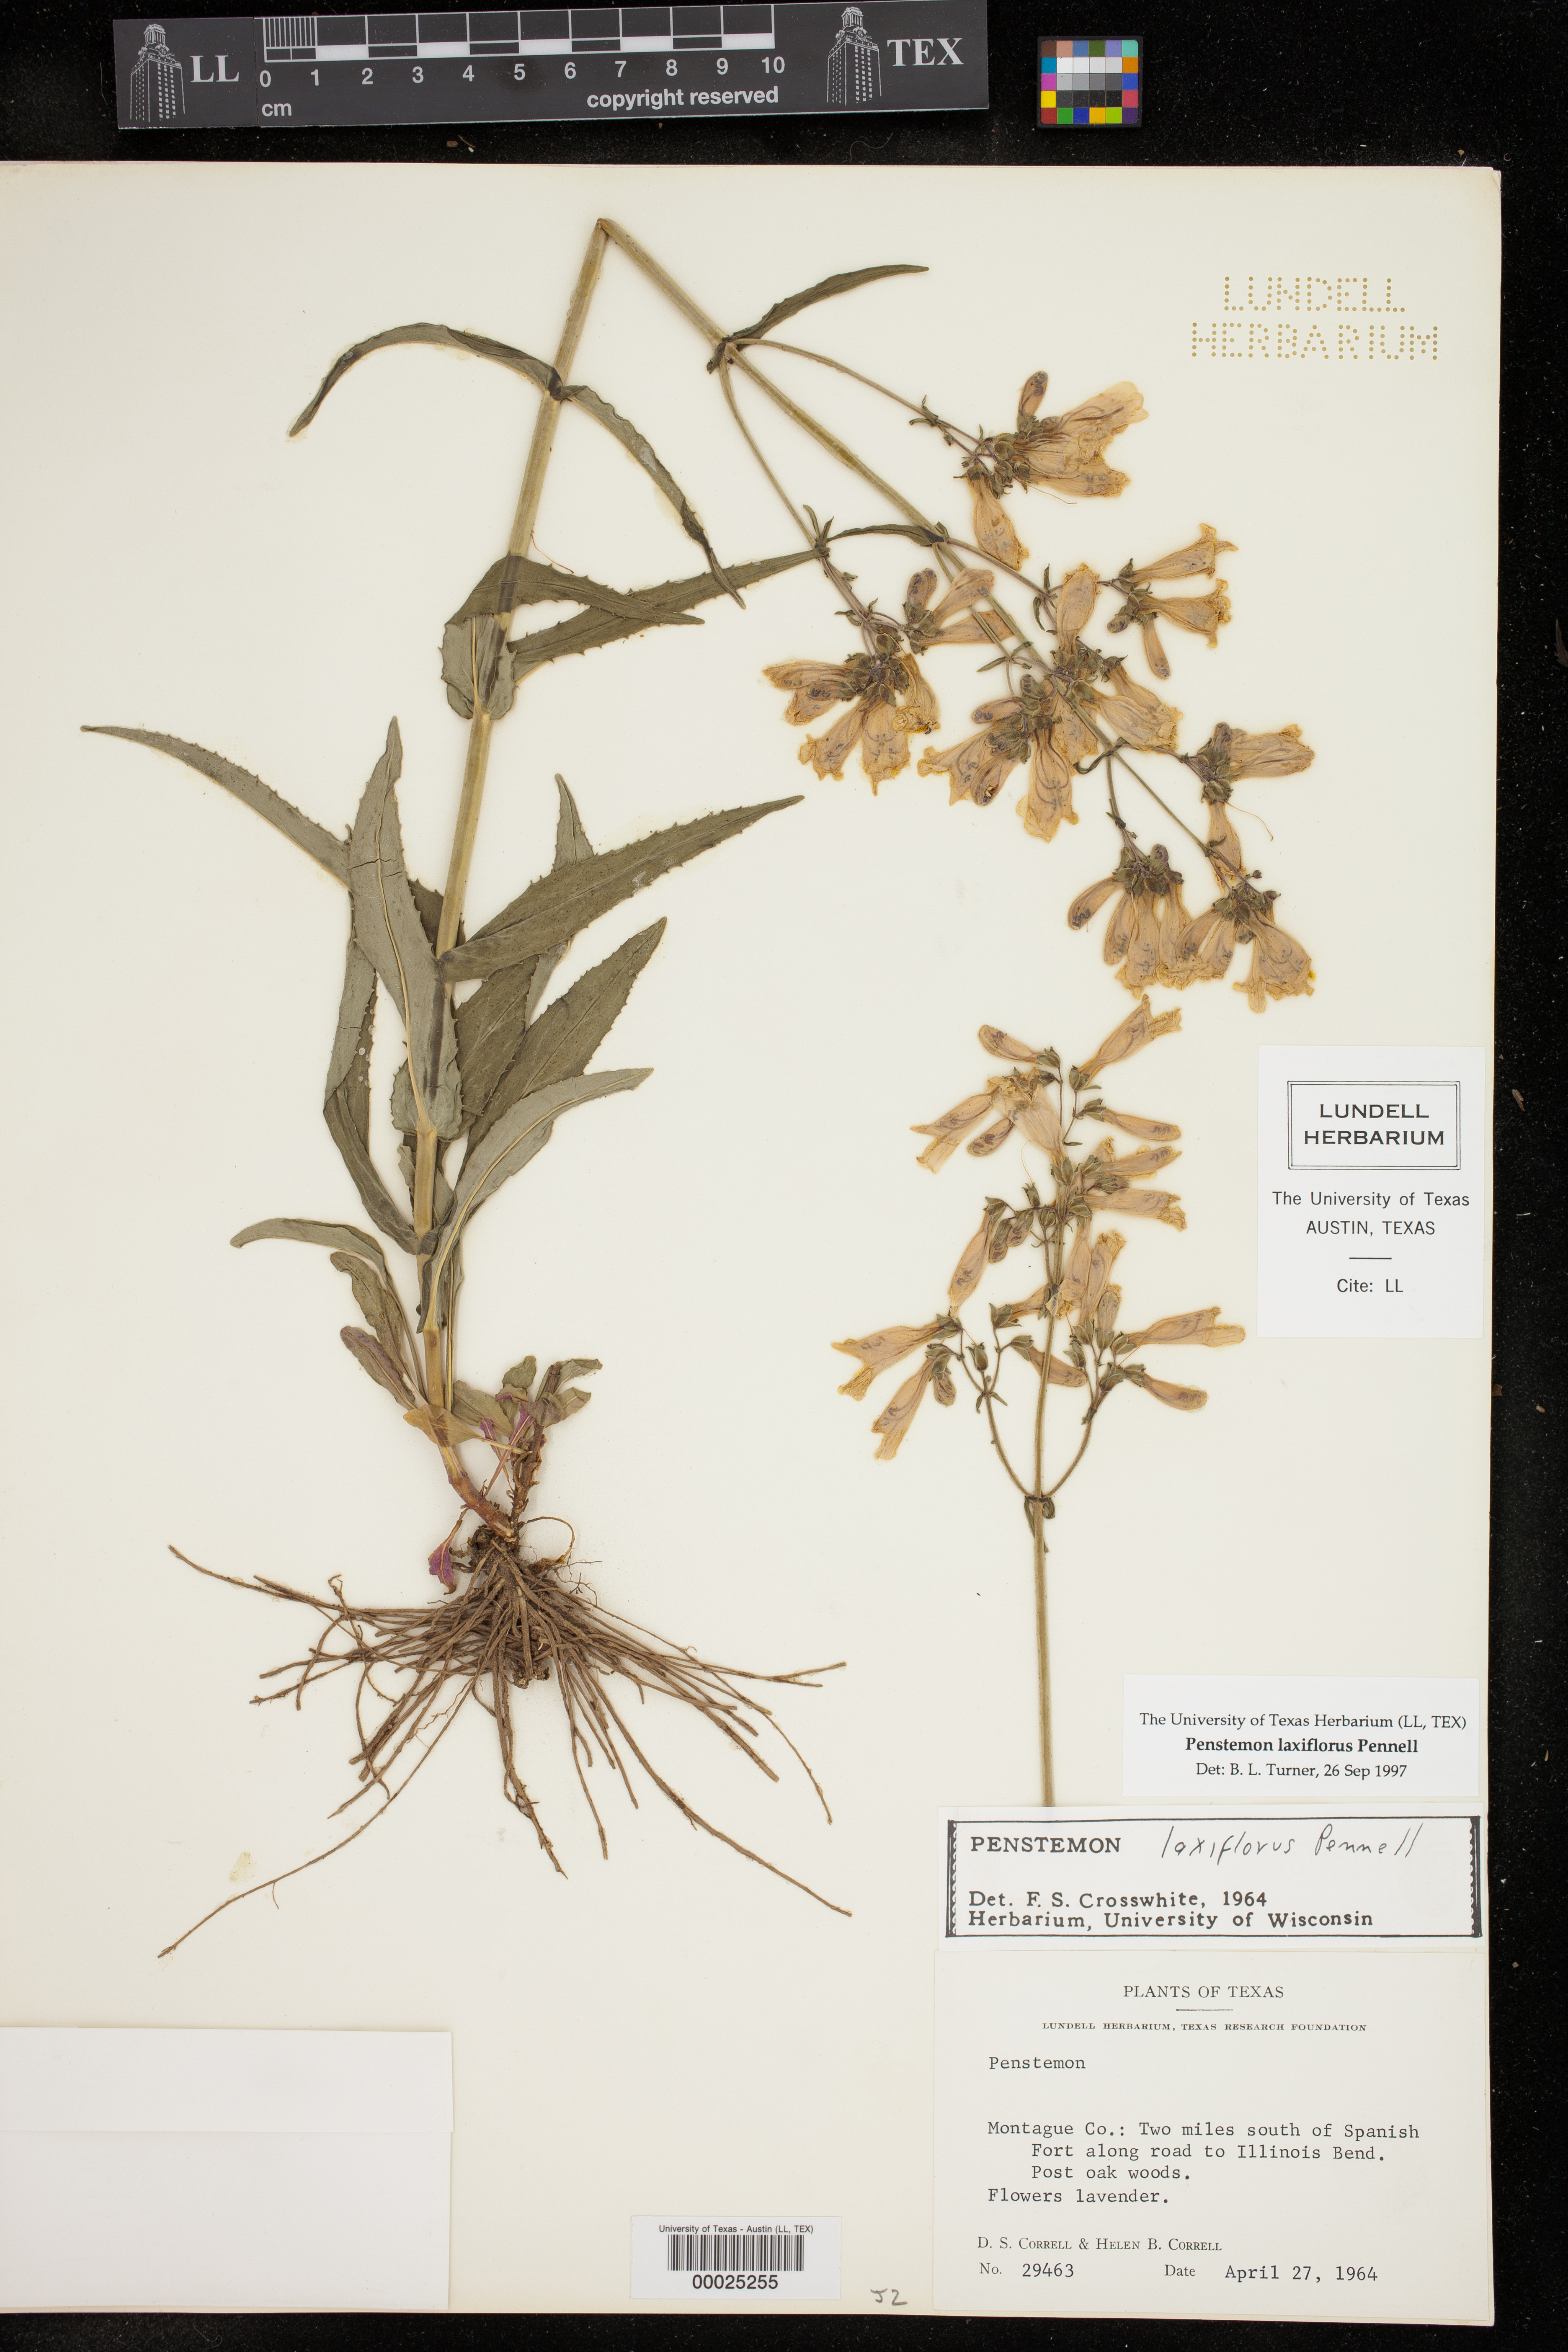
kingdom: Plantae
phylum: Tracheophyta
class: Magnoliopsida
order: Lamiales
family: Plantaginaceae
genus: Penstemon
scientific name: Penstemon laxiflorus
